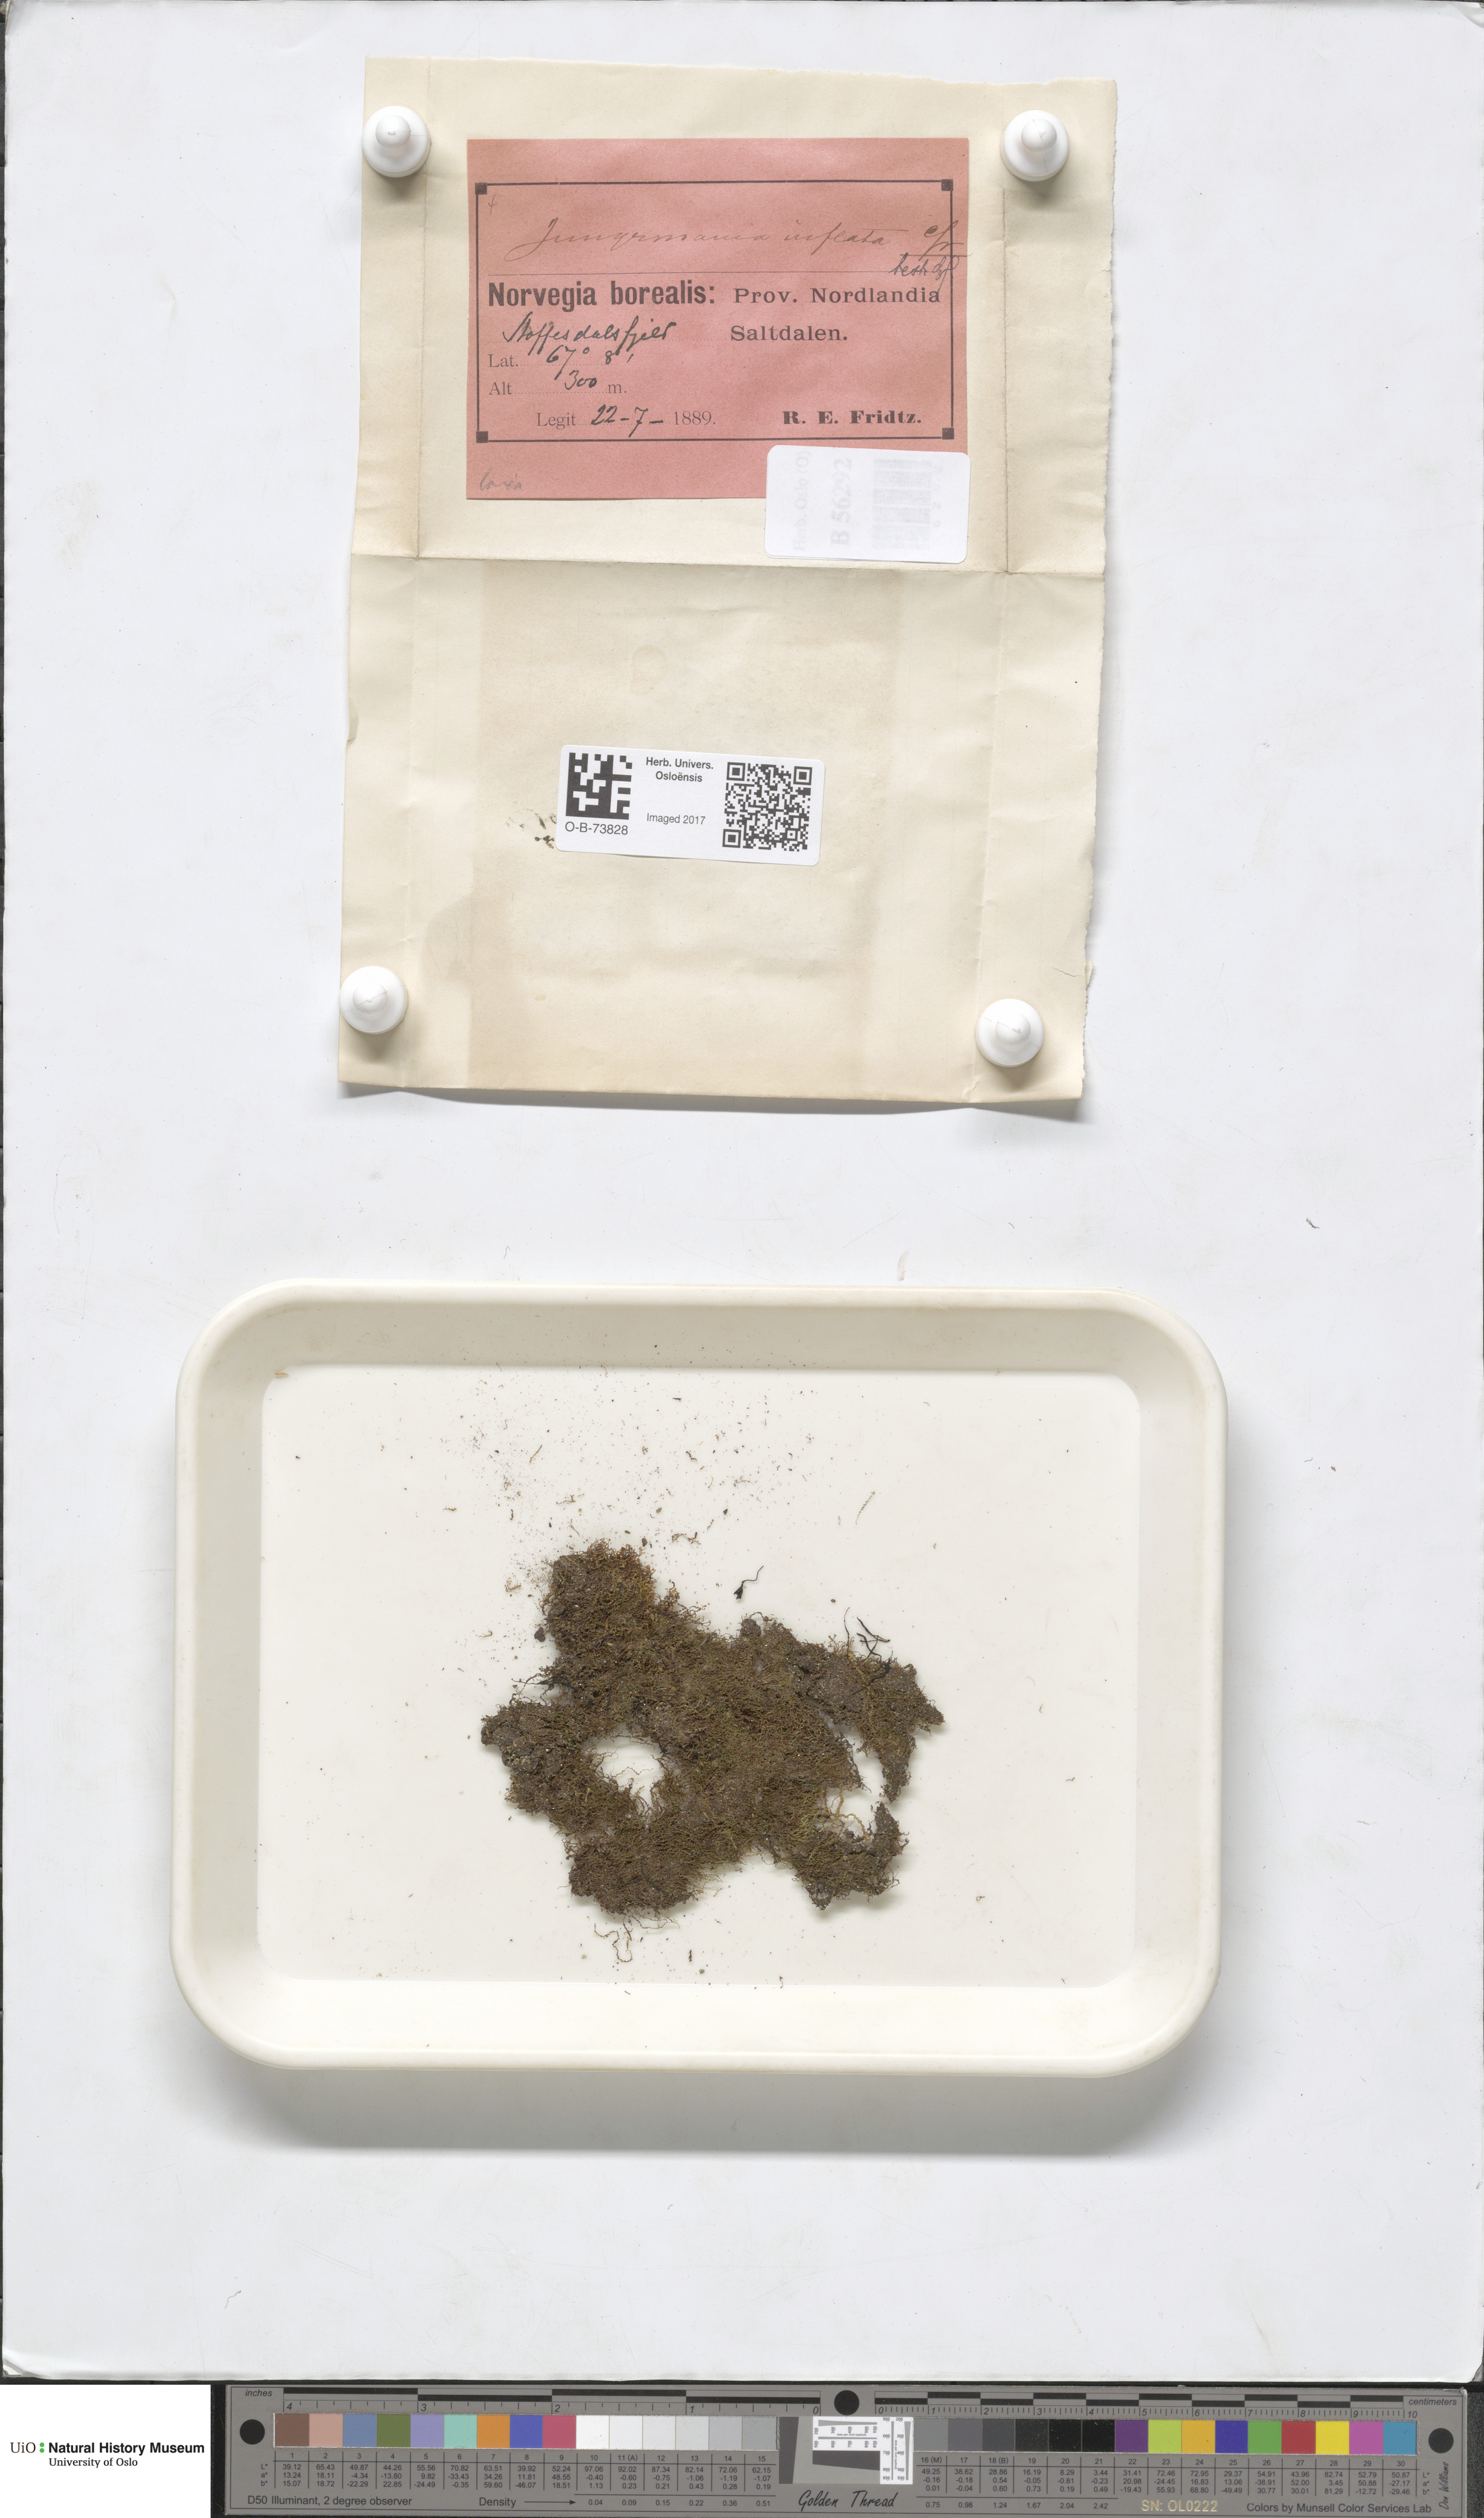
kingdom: Plantae
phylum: Marchantiophyta
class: Jungermanniopsida
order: Jungermanniales
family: Anastrophyllaceae
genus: Gymnocolea
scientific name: Gymnocolea inflata
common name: Inflated notchwort
